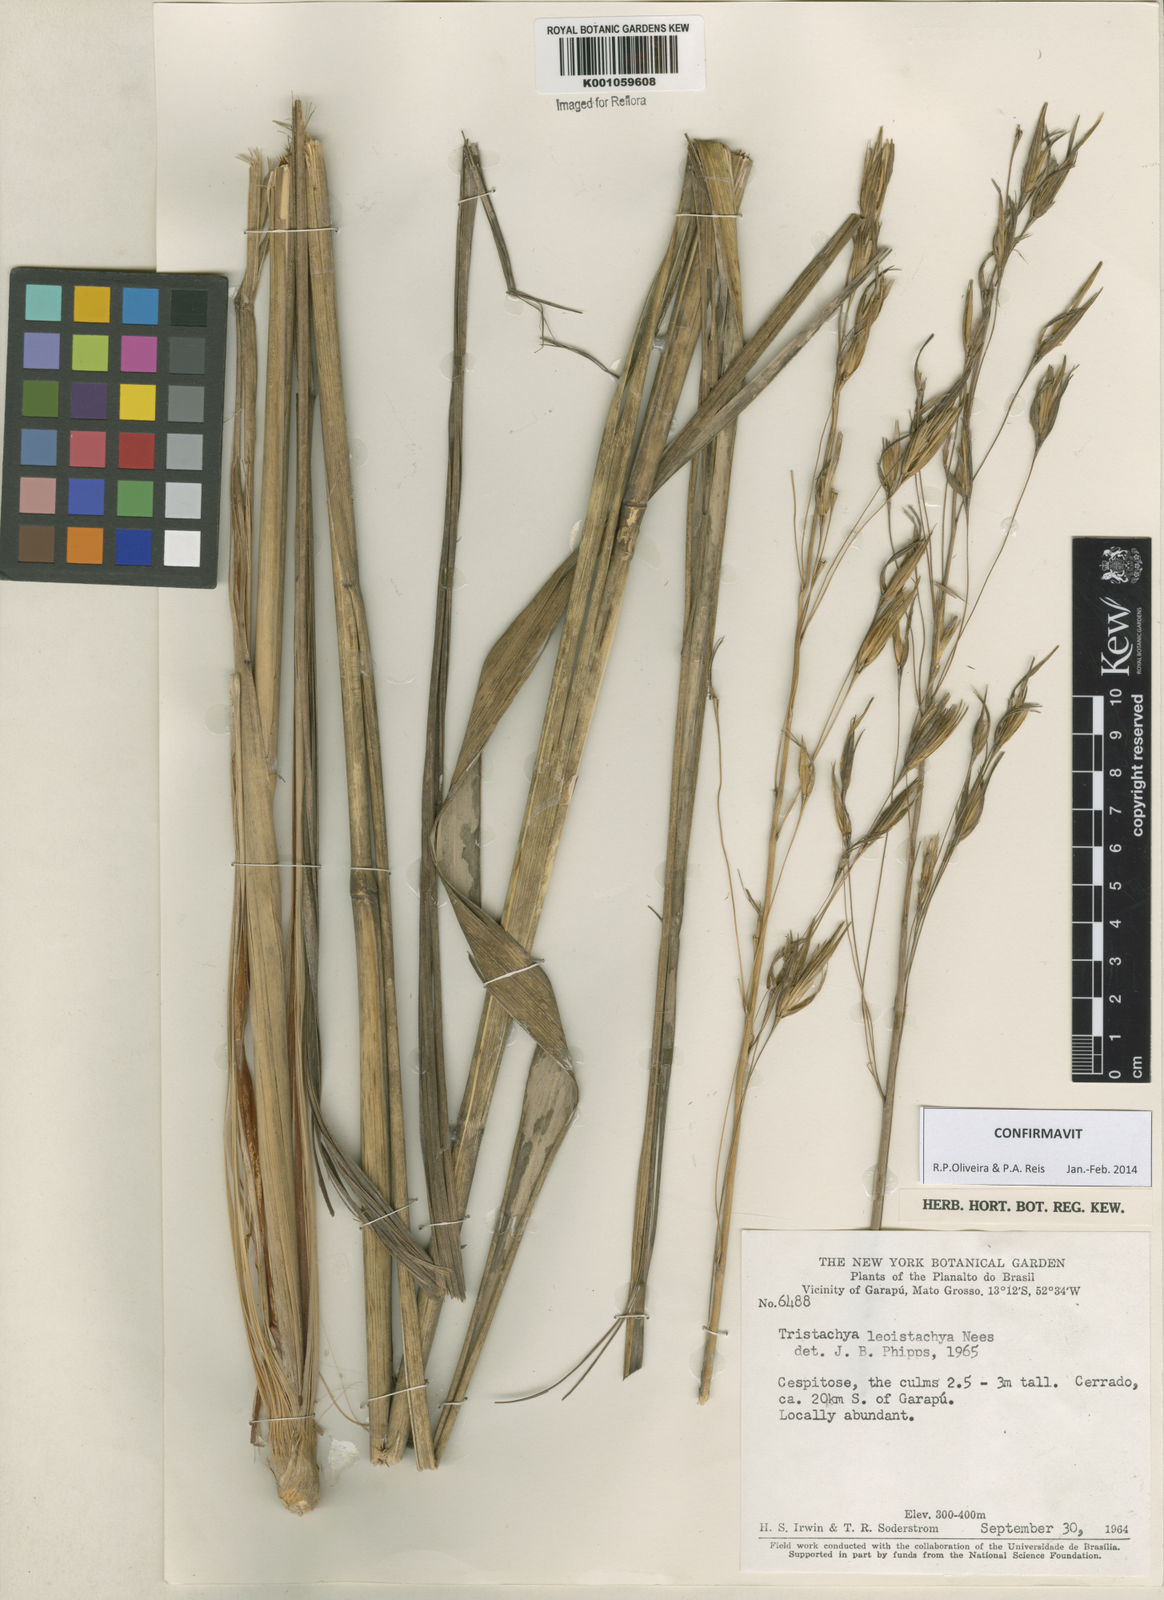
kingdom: Plantae
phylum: Tracheophyta
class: Liliopsida
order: Poales
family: Poaceae
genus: Tristachya
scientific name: Tristachya leiostachya
